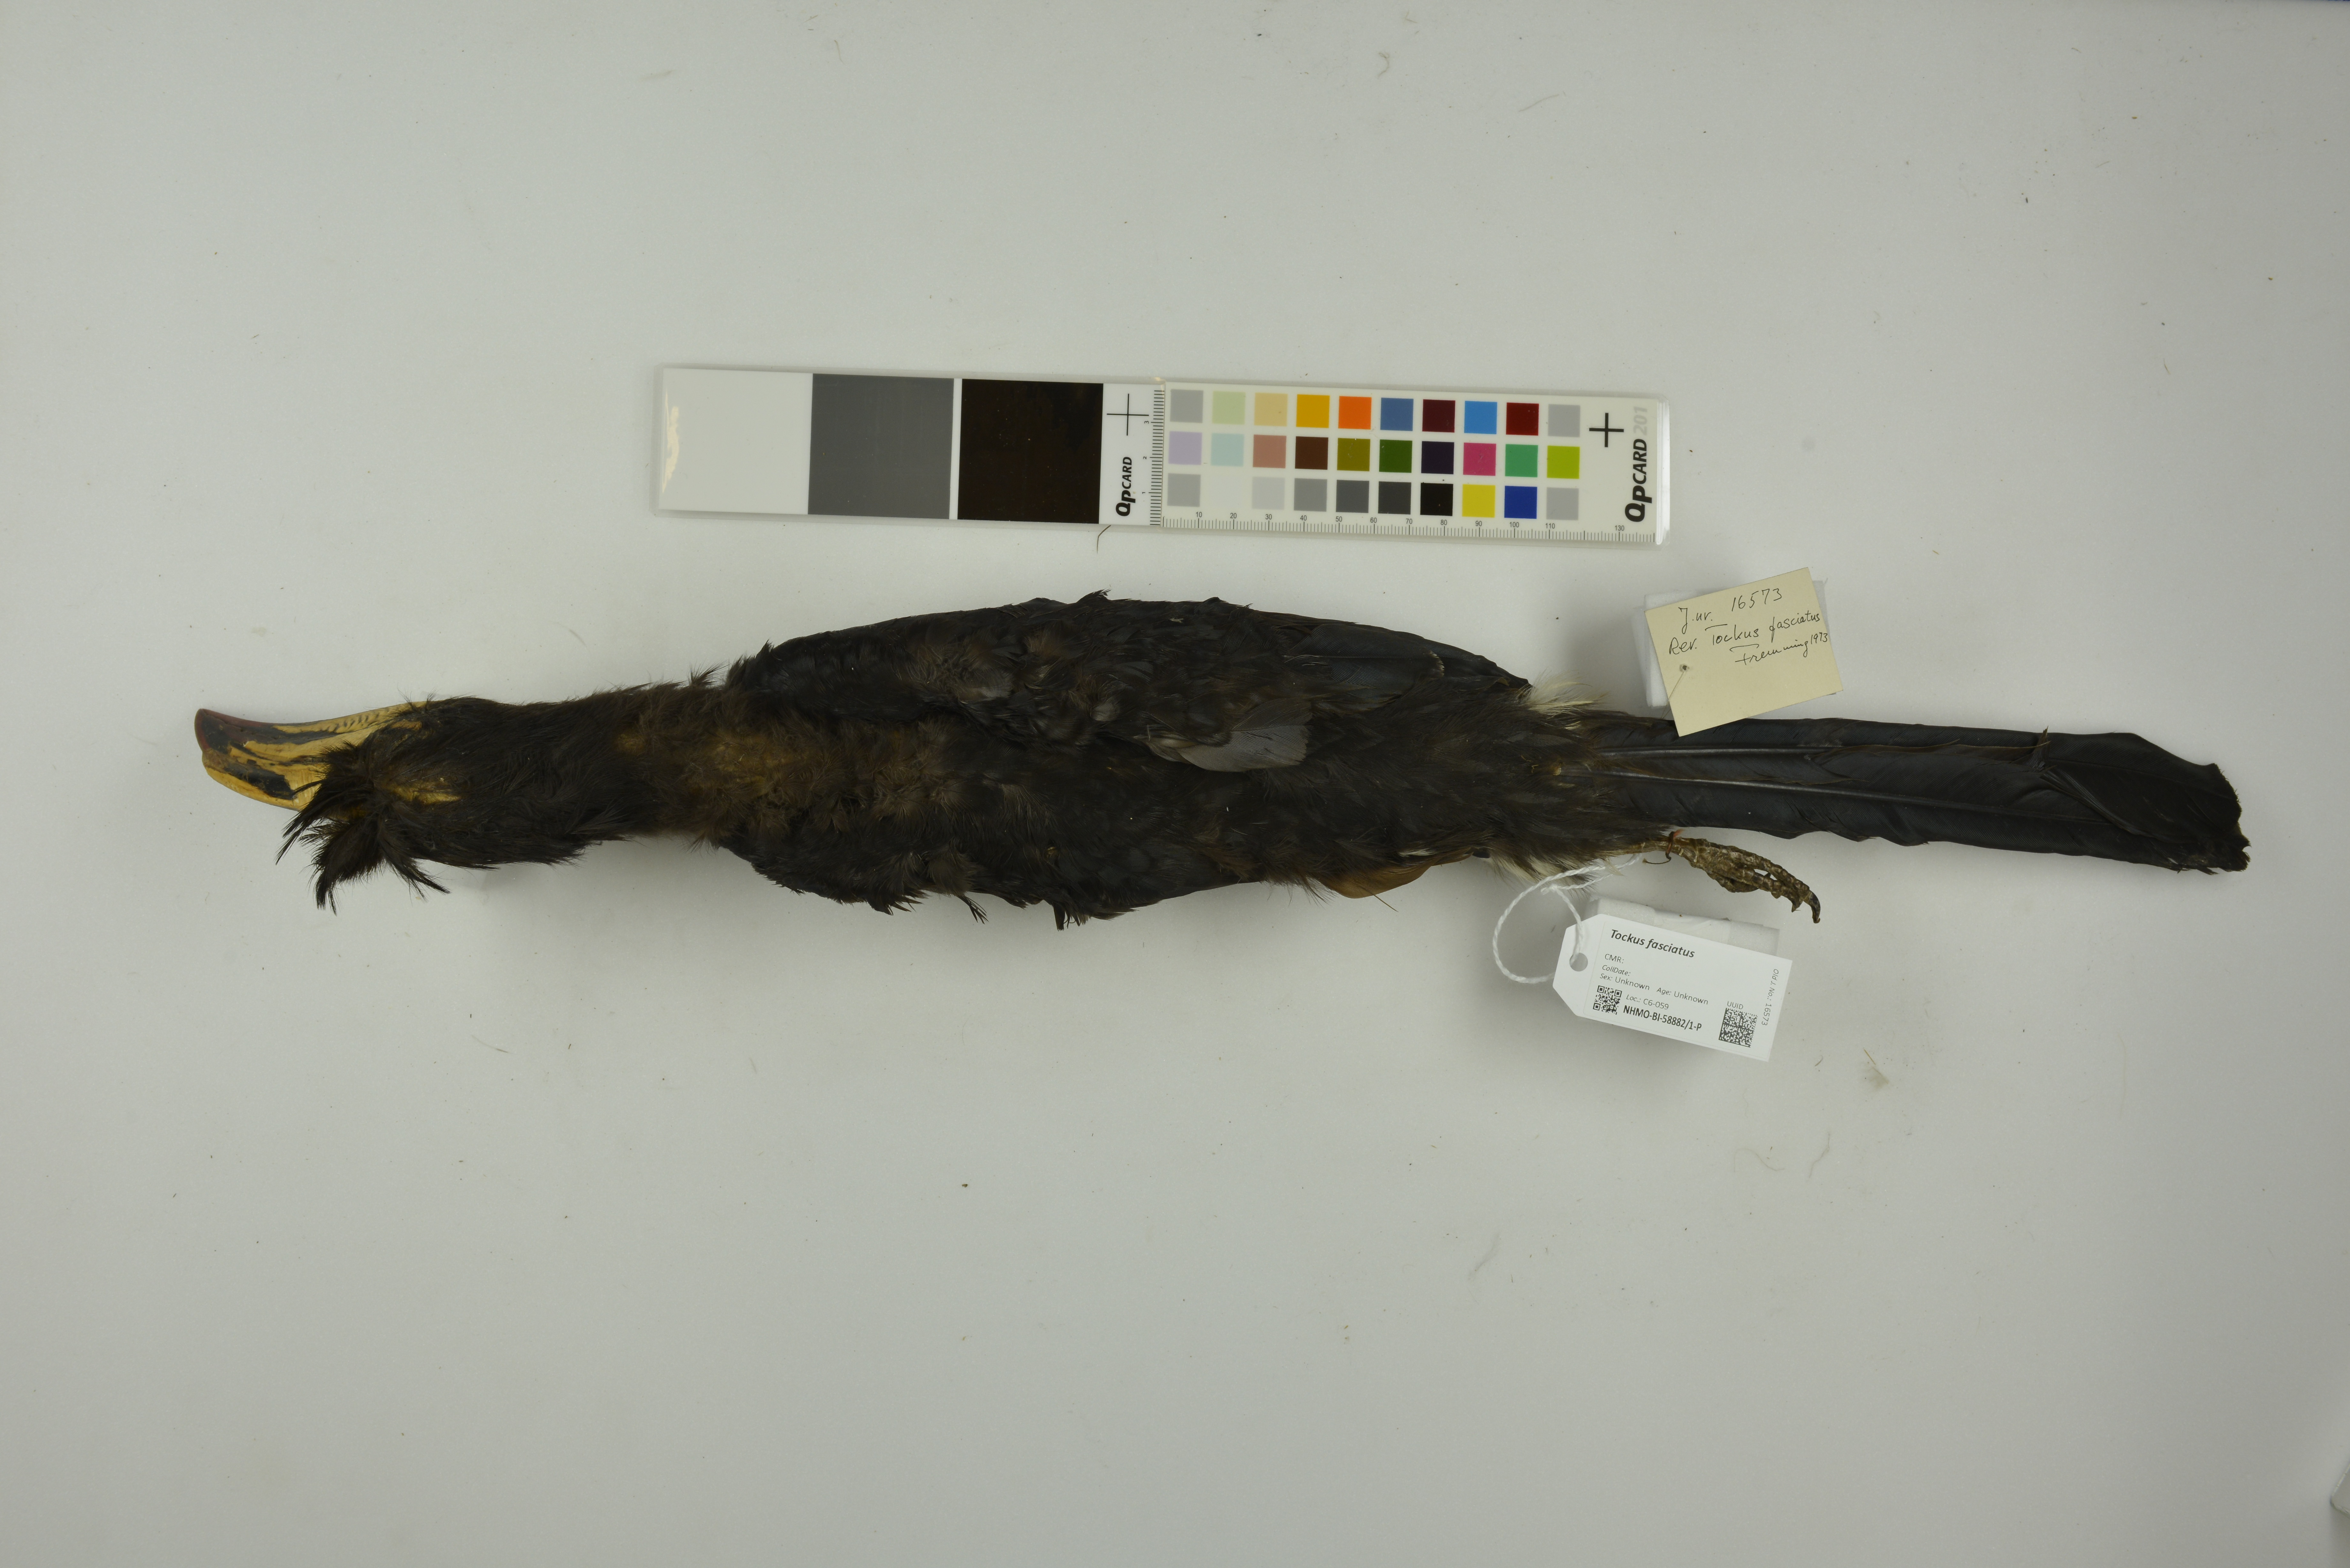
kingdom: Animalia
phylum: Chordata
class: Aves
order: Bucerotiformes
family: Bucerotidae
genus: Lophoceros
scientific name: Lophoceros fasciatus
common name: African pied hornbill
